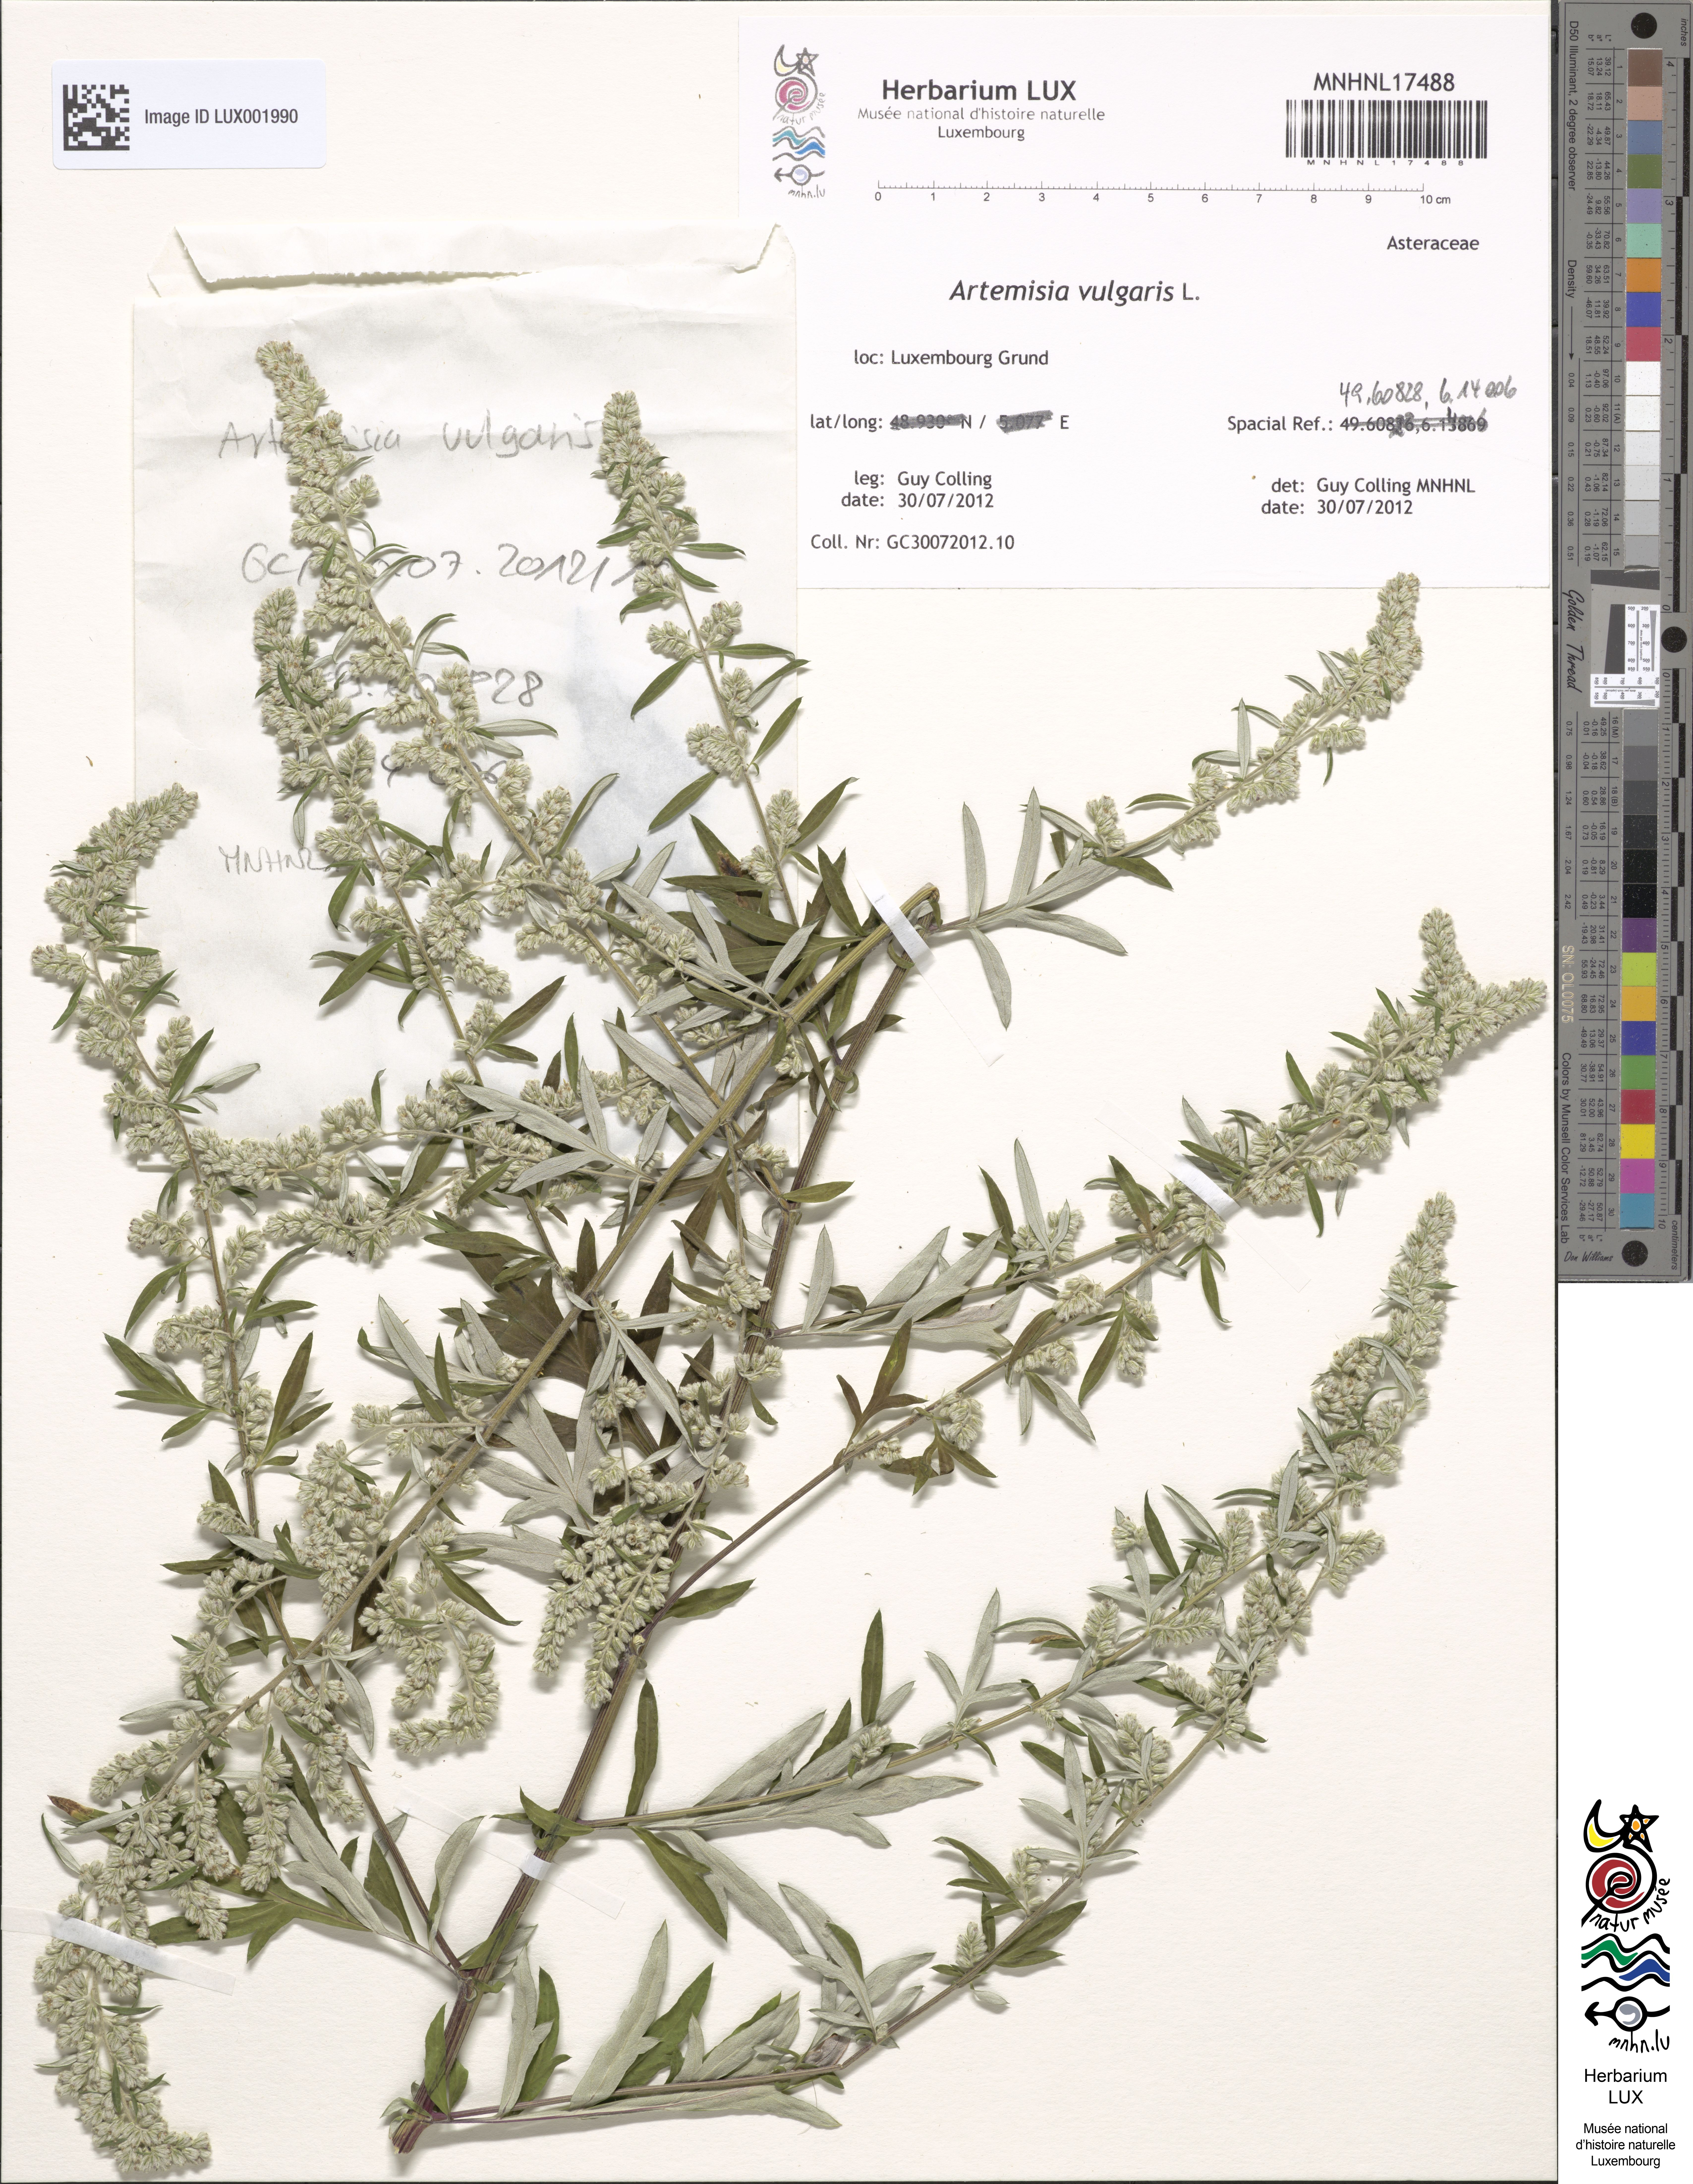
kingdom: Plantae
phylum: Tracheophyta
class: Magnoliopsida
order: Asterales
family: Asteraceae
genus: Artemisia
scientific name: Artemisia vulgaris
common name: Mugwort
